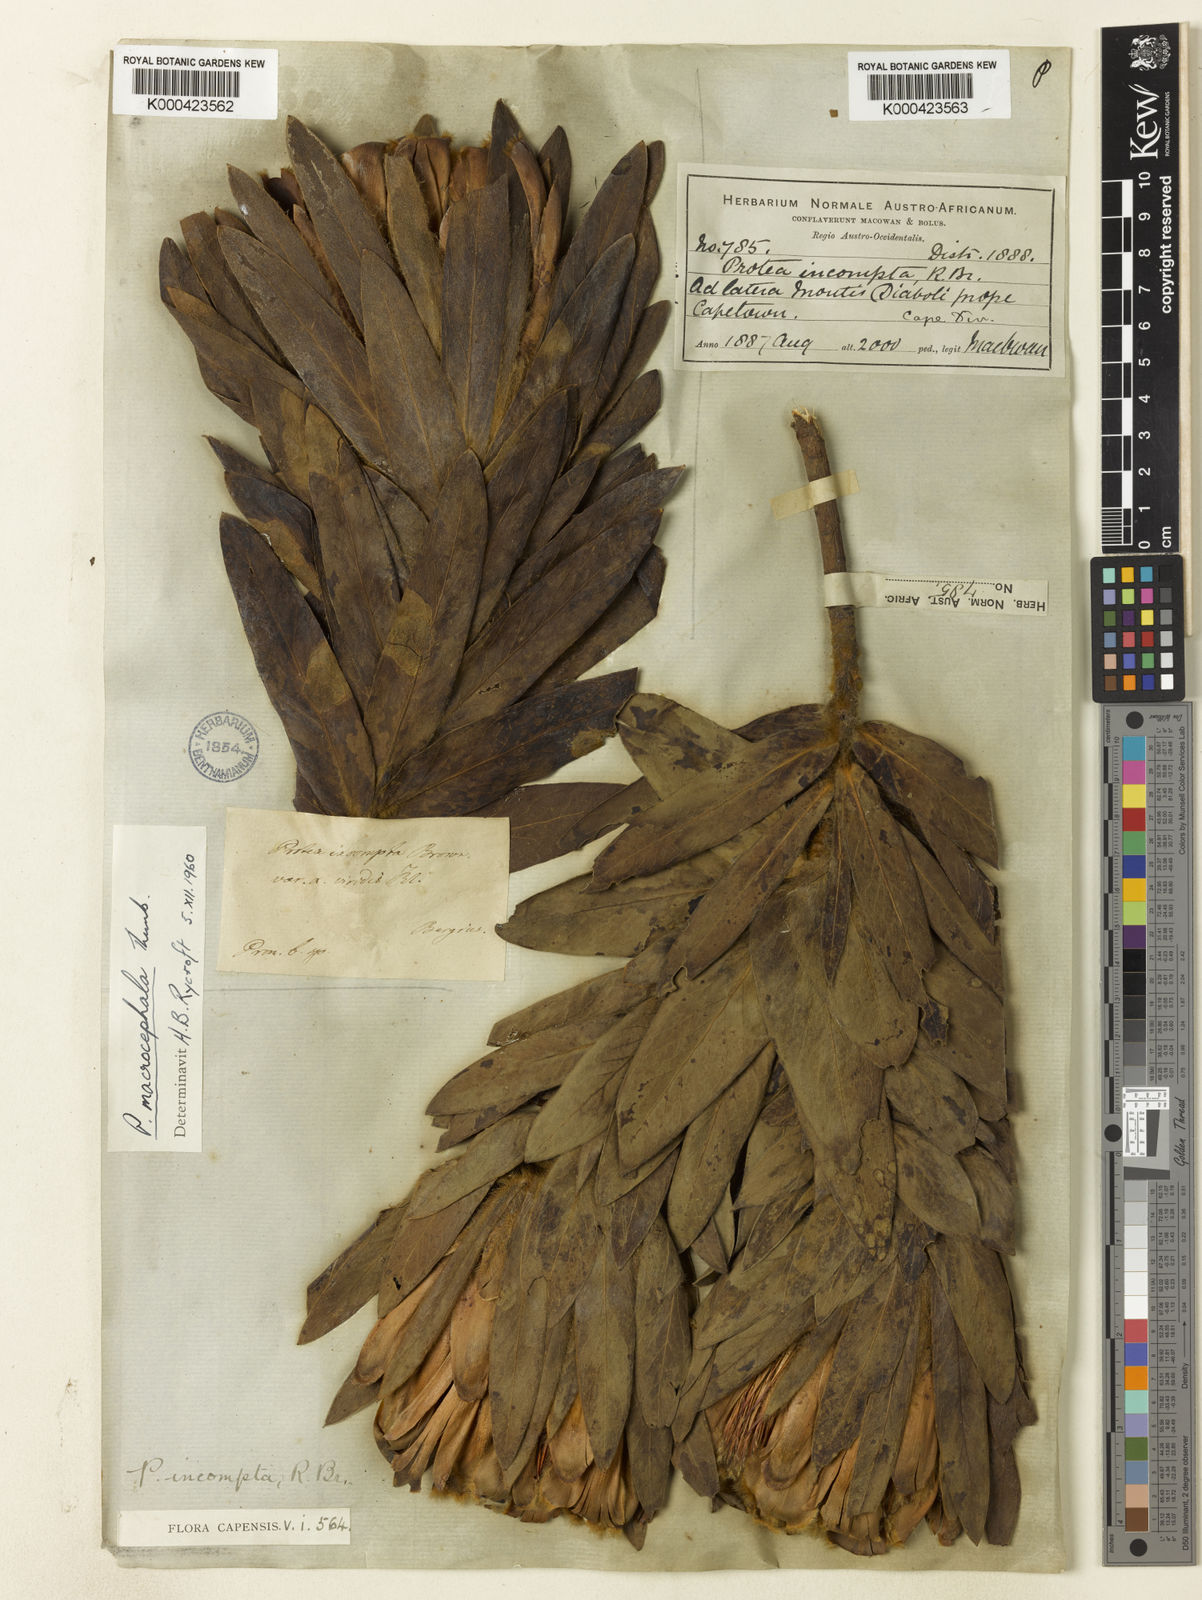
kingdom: Plantae
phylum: Tracheophyta
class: Magnoliopsida
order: Proteales
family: Proteaceae
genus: Protea
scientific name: Protea coronata
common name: Green sugarbush
